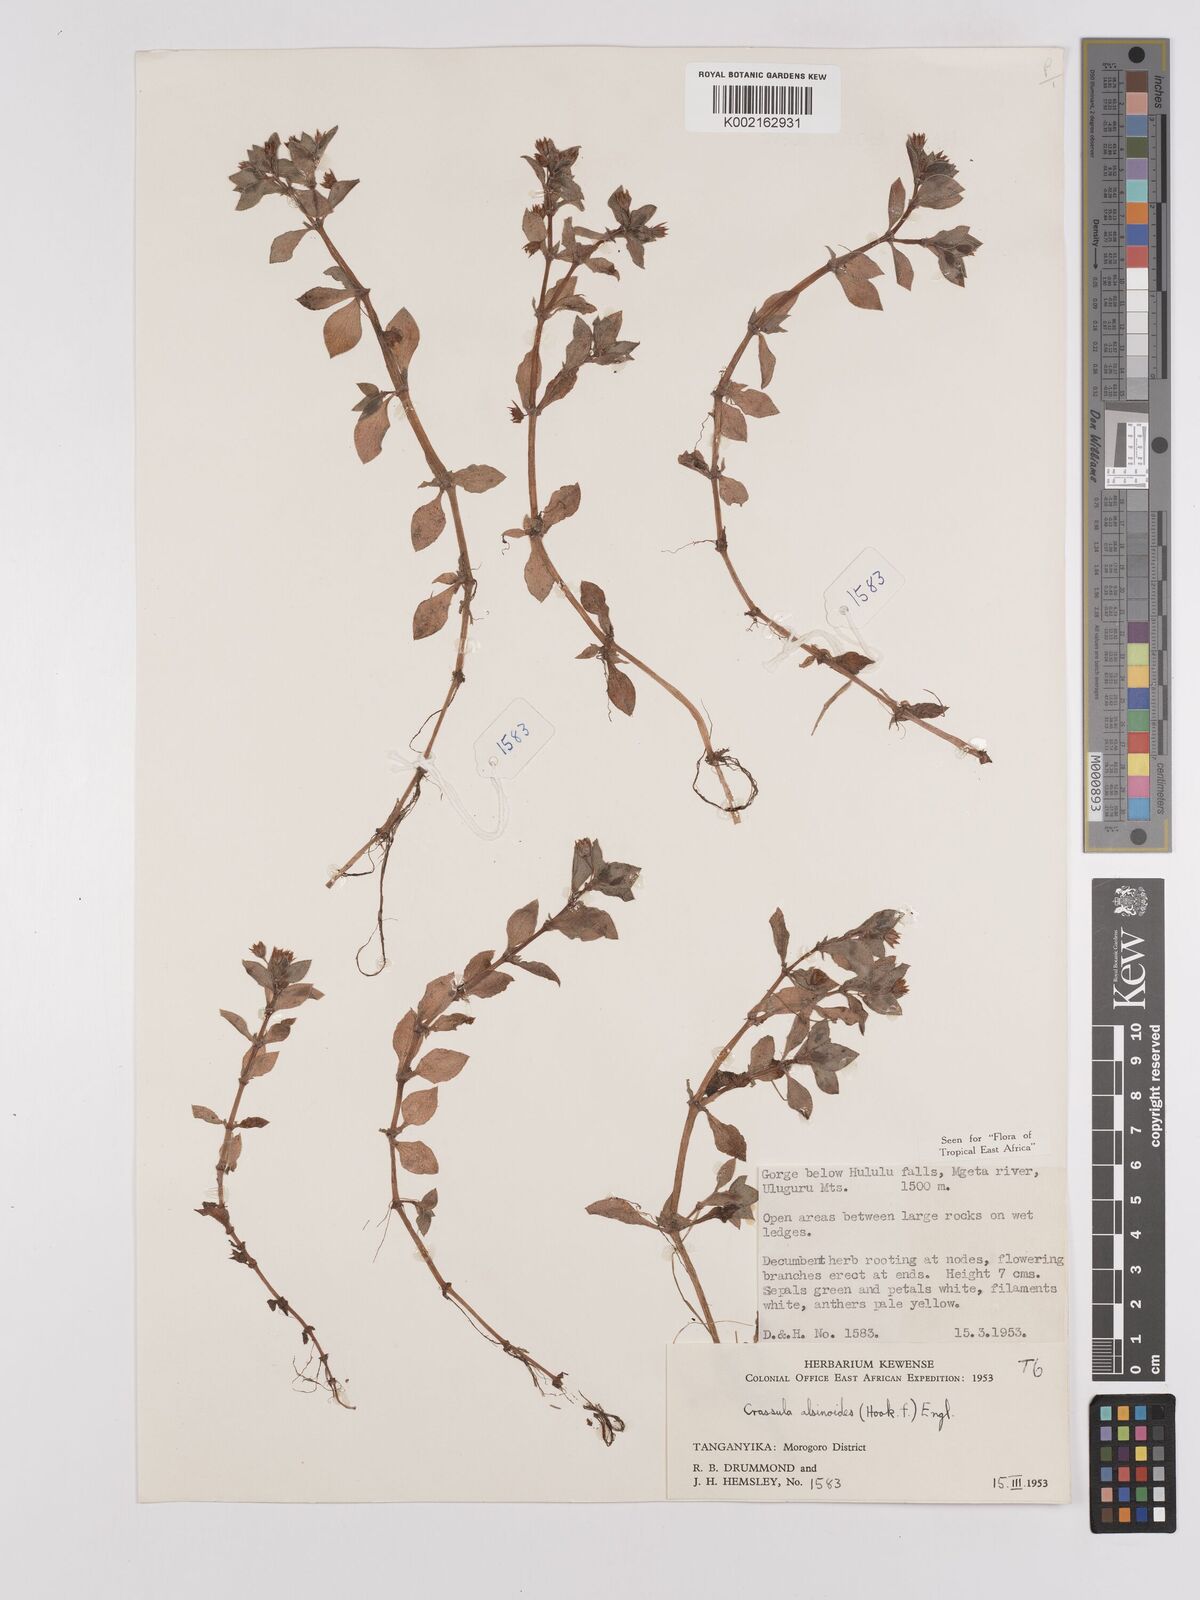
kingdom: Plantae
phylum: Tracheophyta
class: Magnoliopsida
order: Saxifragales
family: Crassulaceae
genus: Crassula
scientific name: Crassula alsinoides
